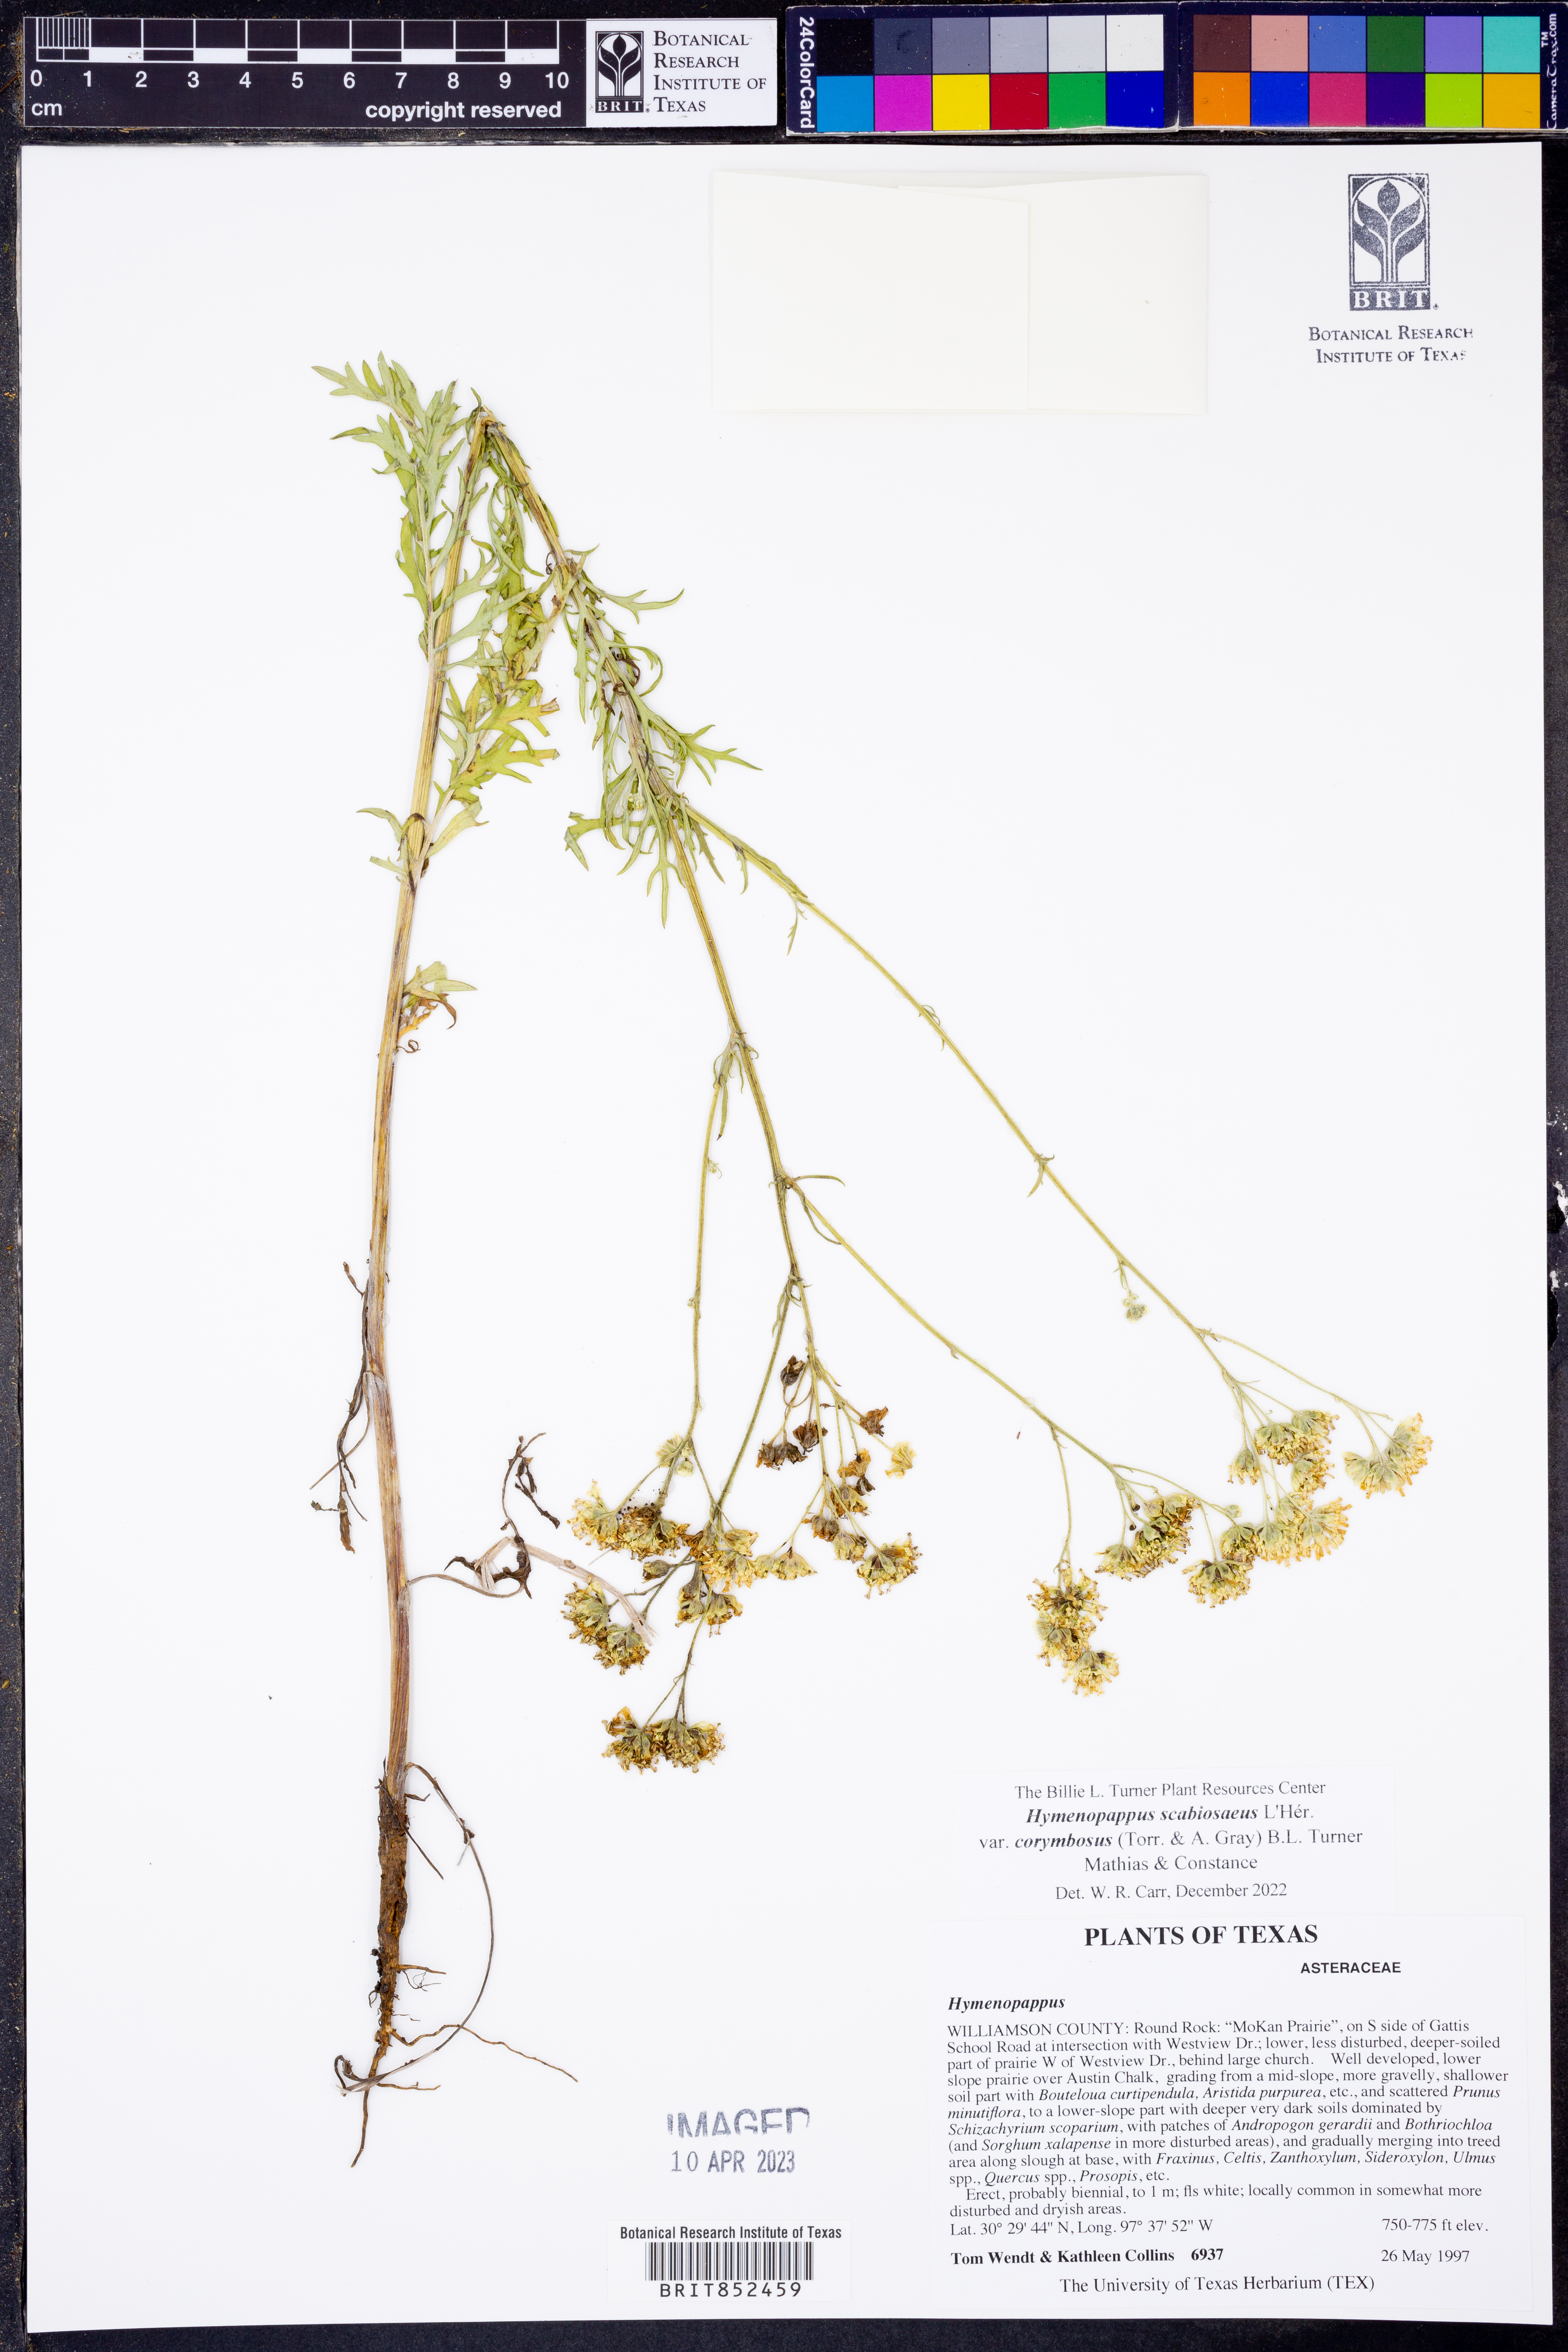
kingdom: Plantae
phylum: Tracheophyta
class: Magnoliopsida
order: Asterales
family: Asteraceae
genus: Hymenopappus
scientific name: Hymenopappus scabiosaeus
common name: Carolina woollywhite
